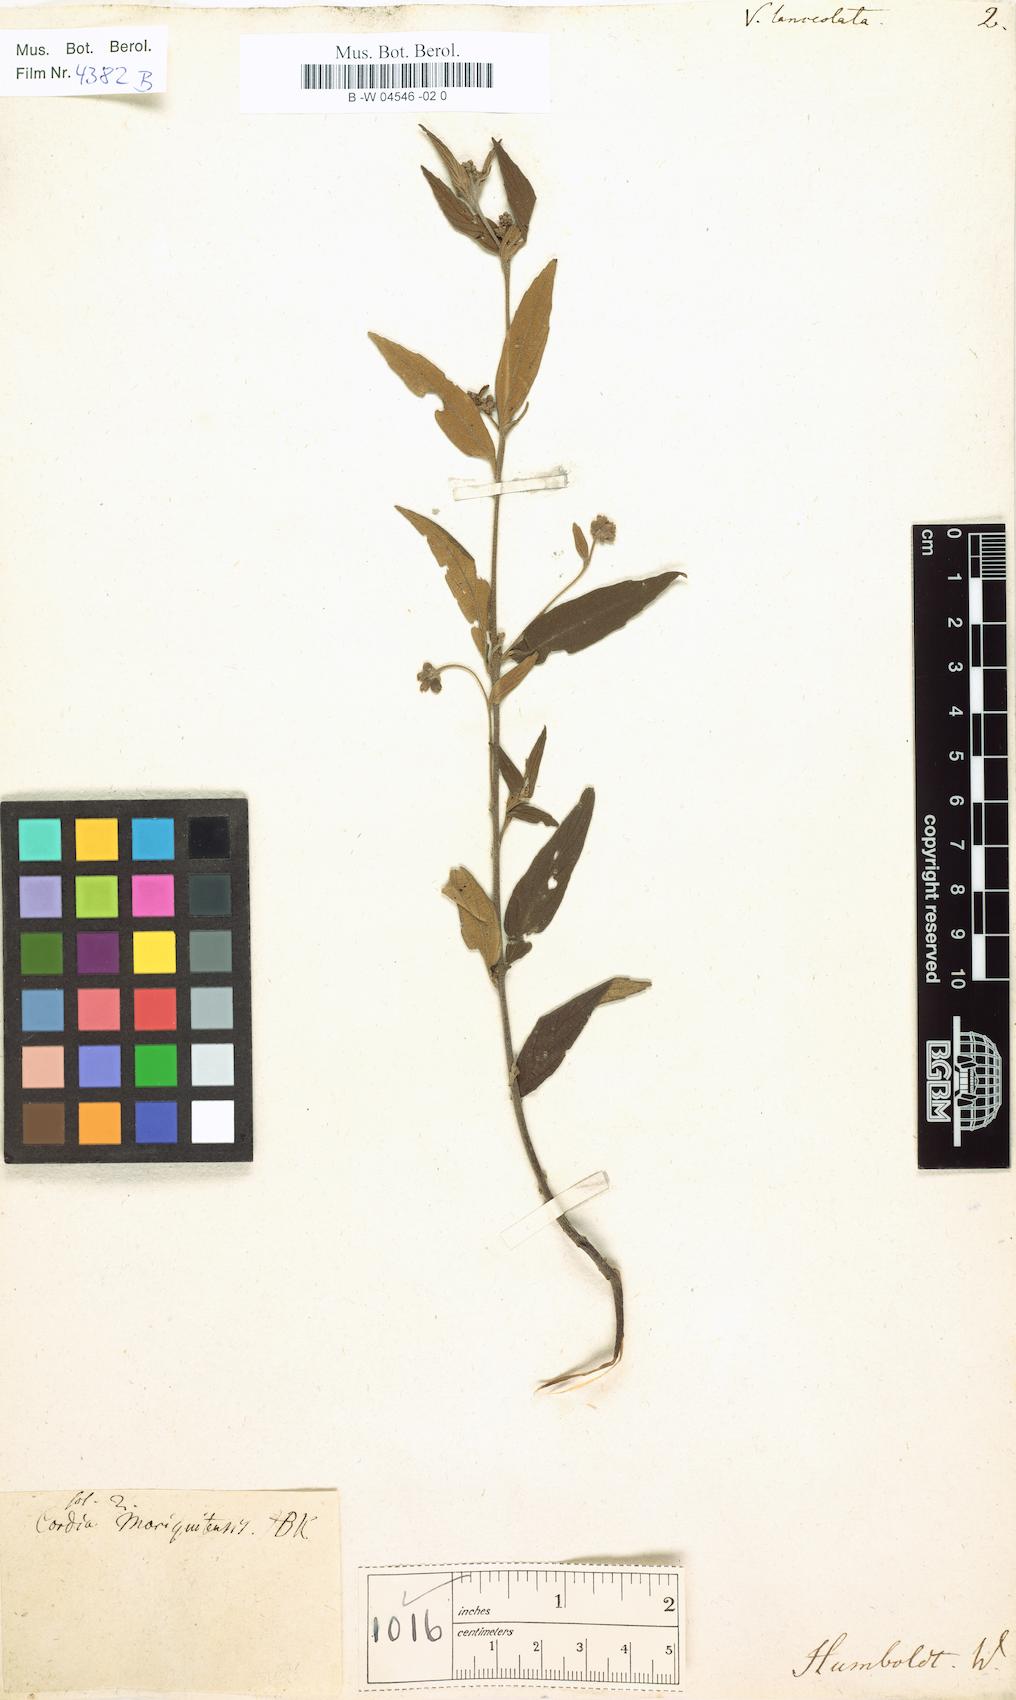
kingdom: Plantae
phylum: Tracheophyta
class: Magnoliopsida
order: Boraginales
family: Cordiaceae
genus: Varronia
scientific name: Varronia polycephala
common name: Black-sage
